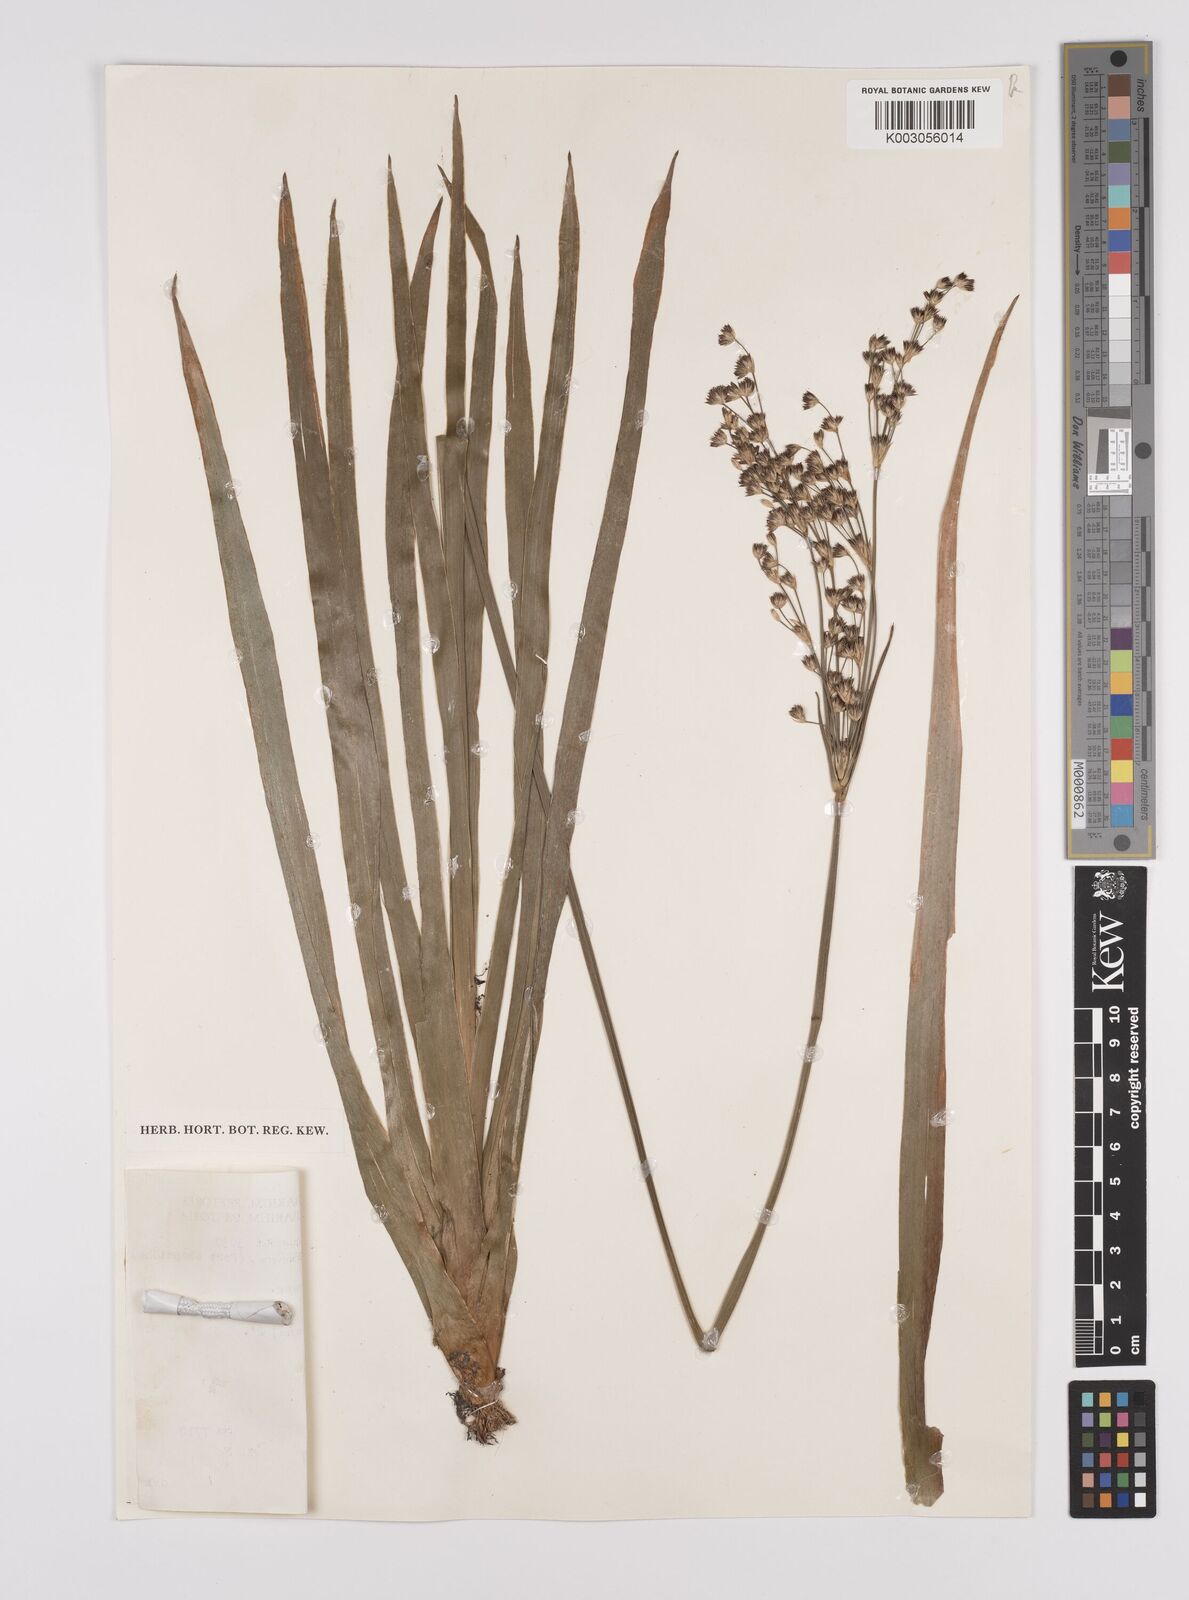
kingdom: Plantae
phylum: Tracheophyta
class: Liliopsida
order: Poales
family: Juncaceae
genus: Juncus
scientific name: Juncus lomatophyllus
